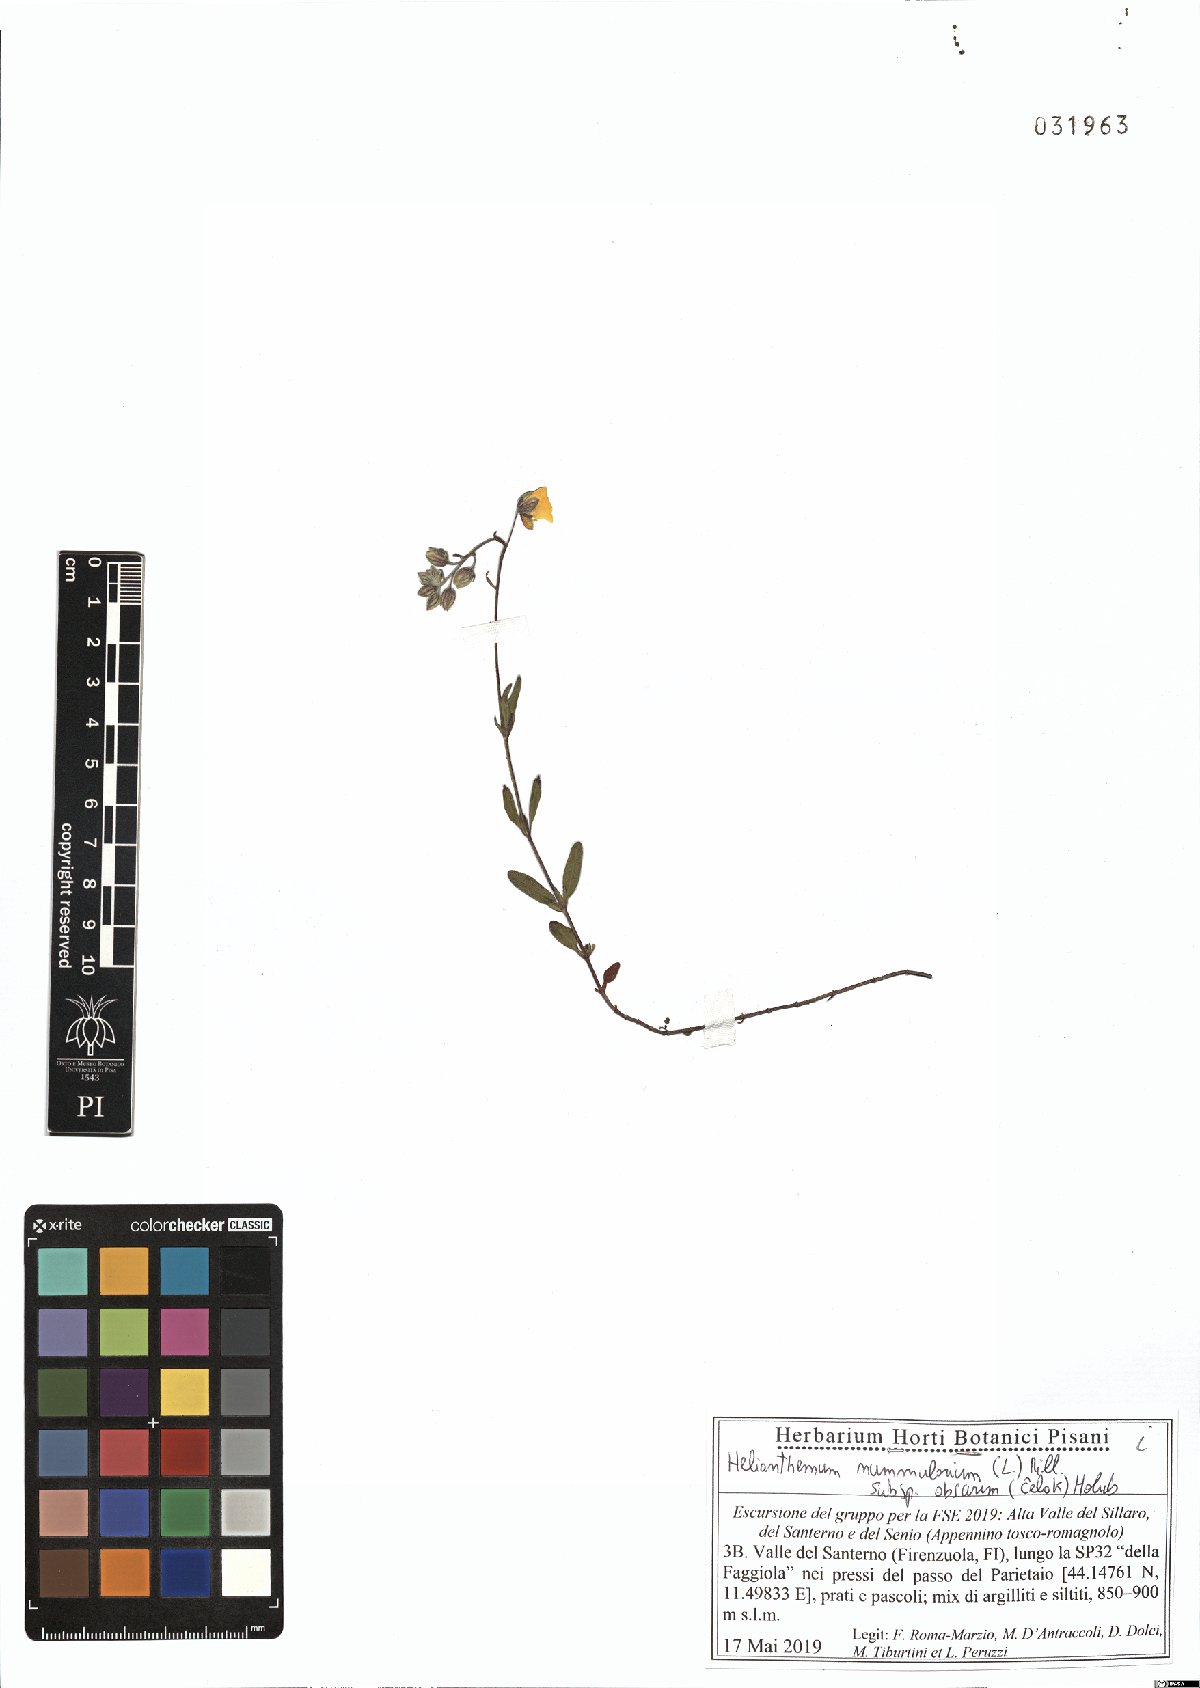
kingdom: Plantae
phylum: Tracheophyta
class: Magnoliopsida
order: Malvales
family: Cistaceae
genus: Helianthemum
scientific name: Helianthemum nummularium
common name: Common rock-rose
